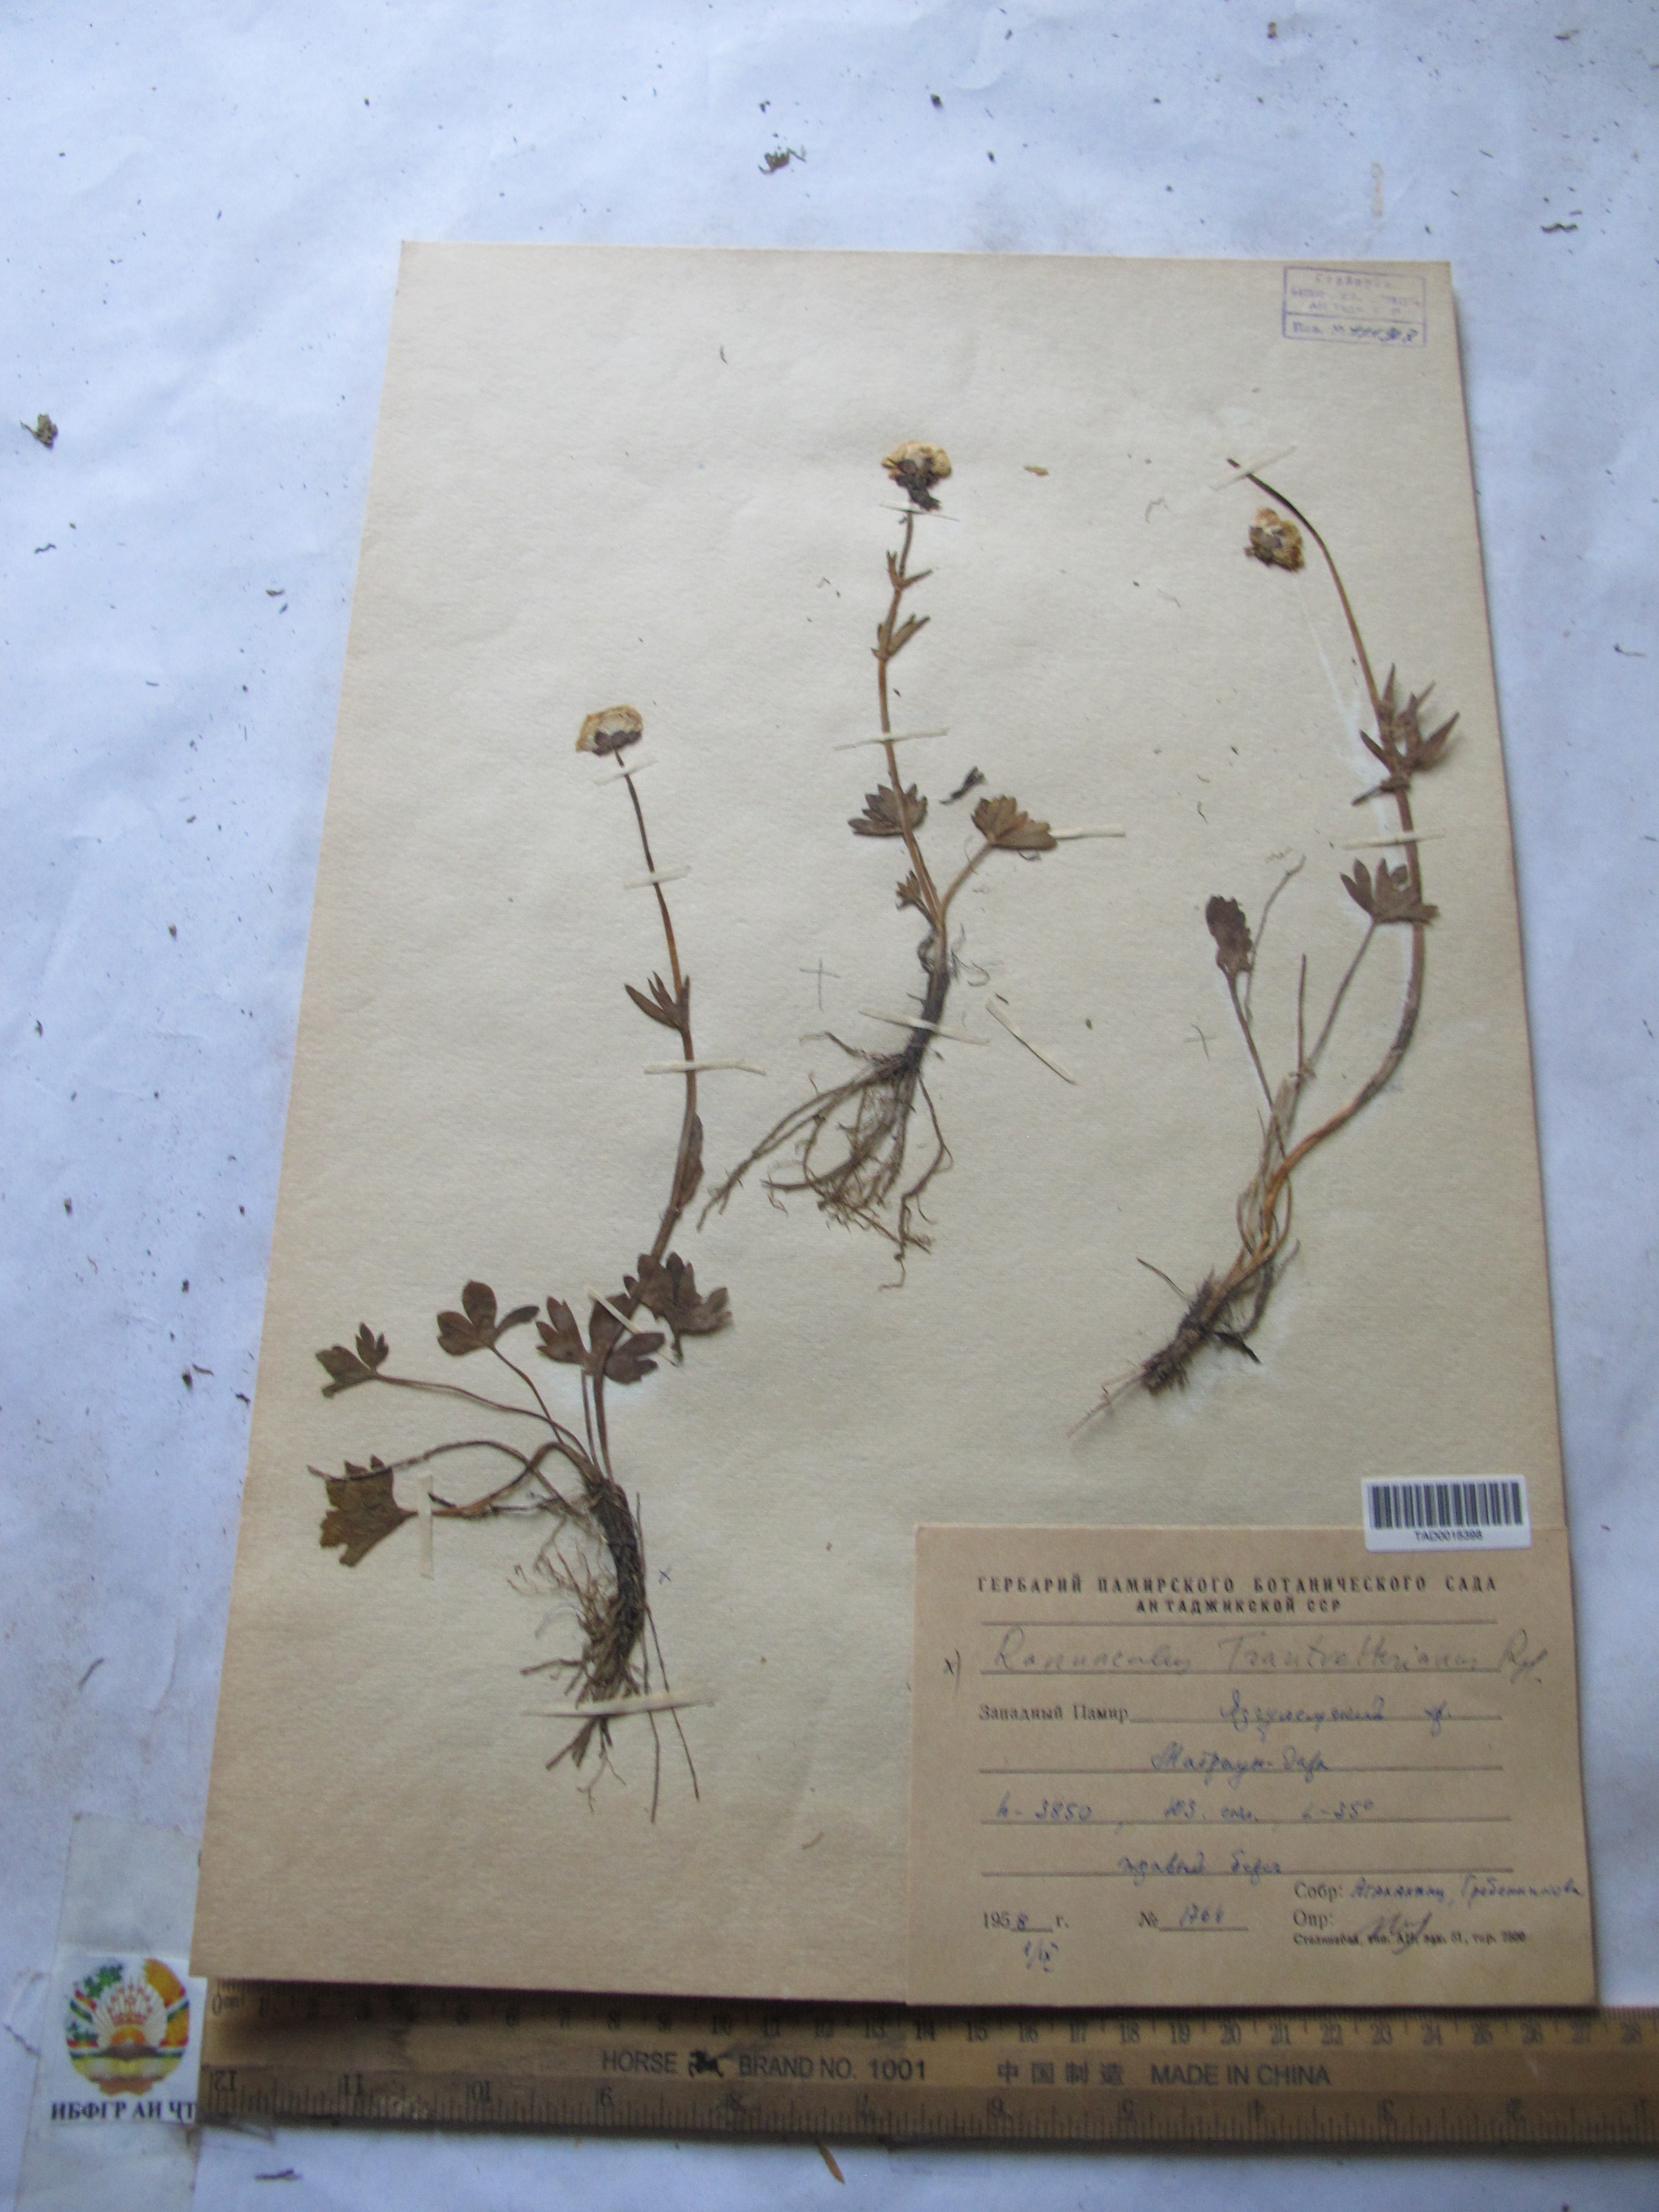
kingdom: Plantae
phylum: Tracheophyta
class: Magnoliopsida
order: Ranunculales
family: Ranunculaceae
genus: Ranunculus
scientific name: Ranunculus songaricus
